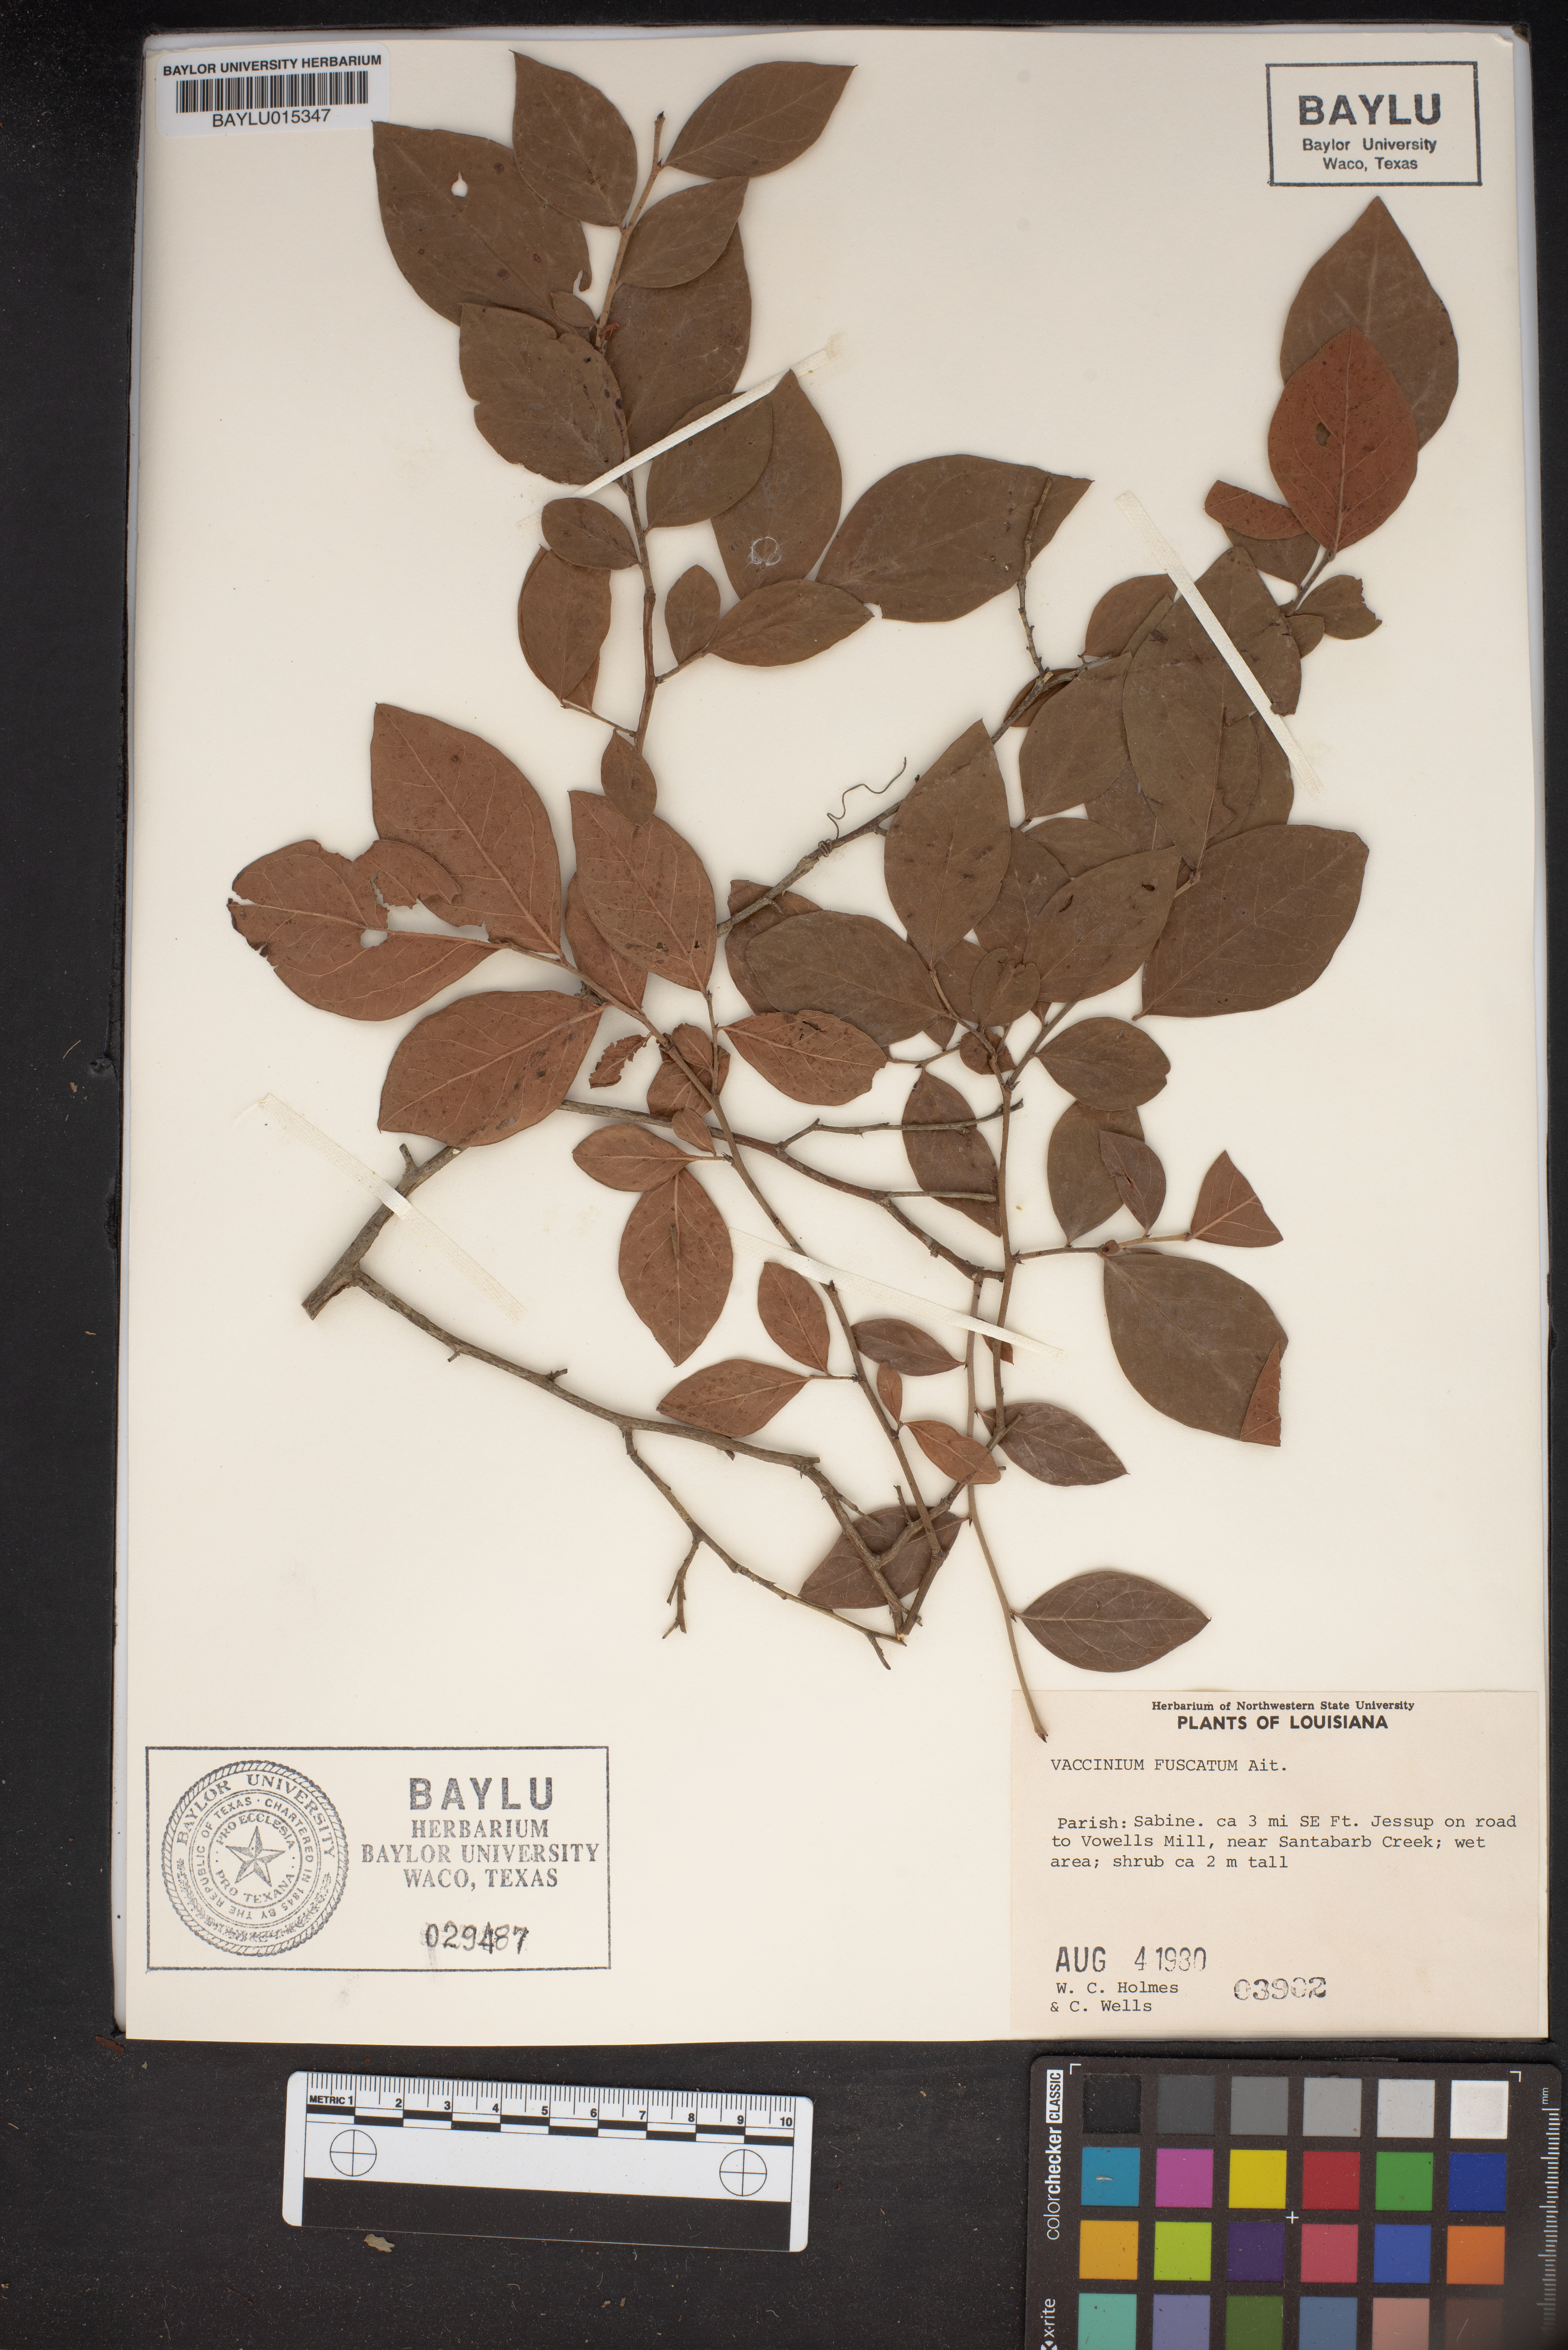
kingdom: Plantae
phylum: Tracheophyta
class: Magnoliopsida
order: Ericales
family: Ericaceae
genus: Vaccinium
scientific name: Vaccinium corymbosum
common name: Blueberry
